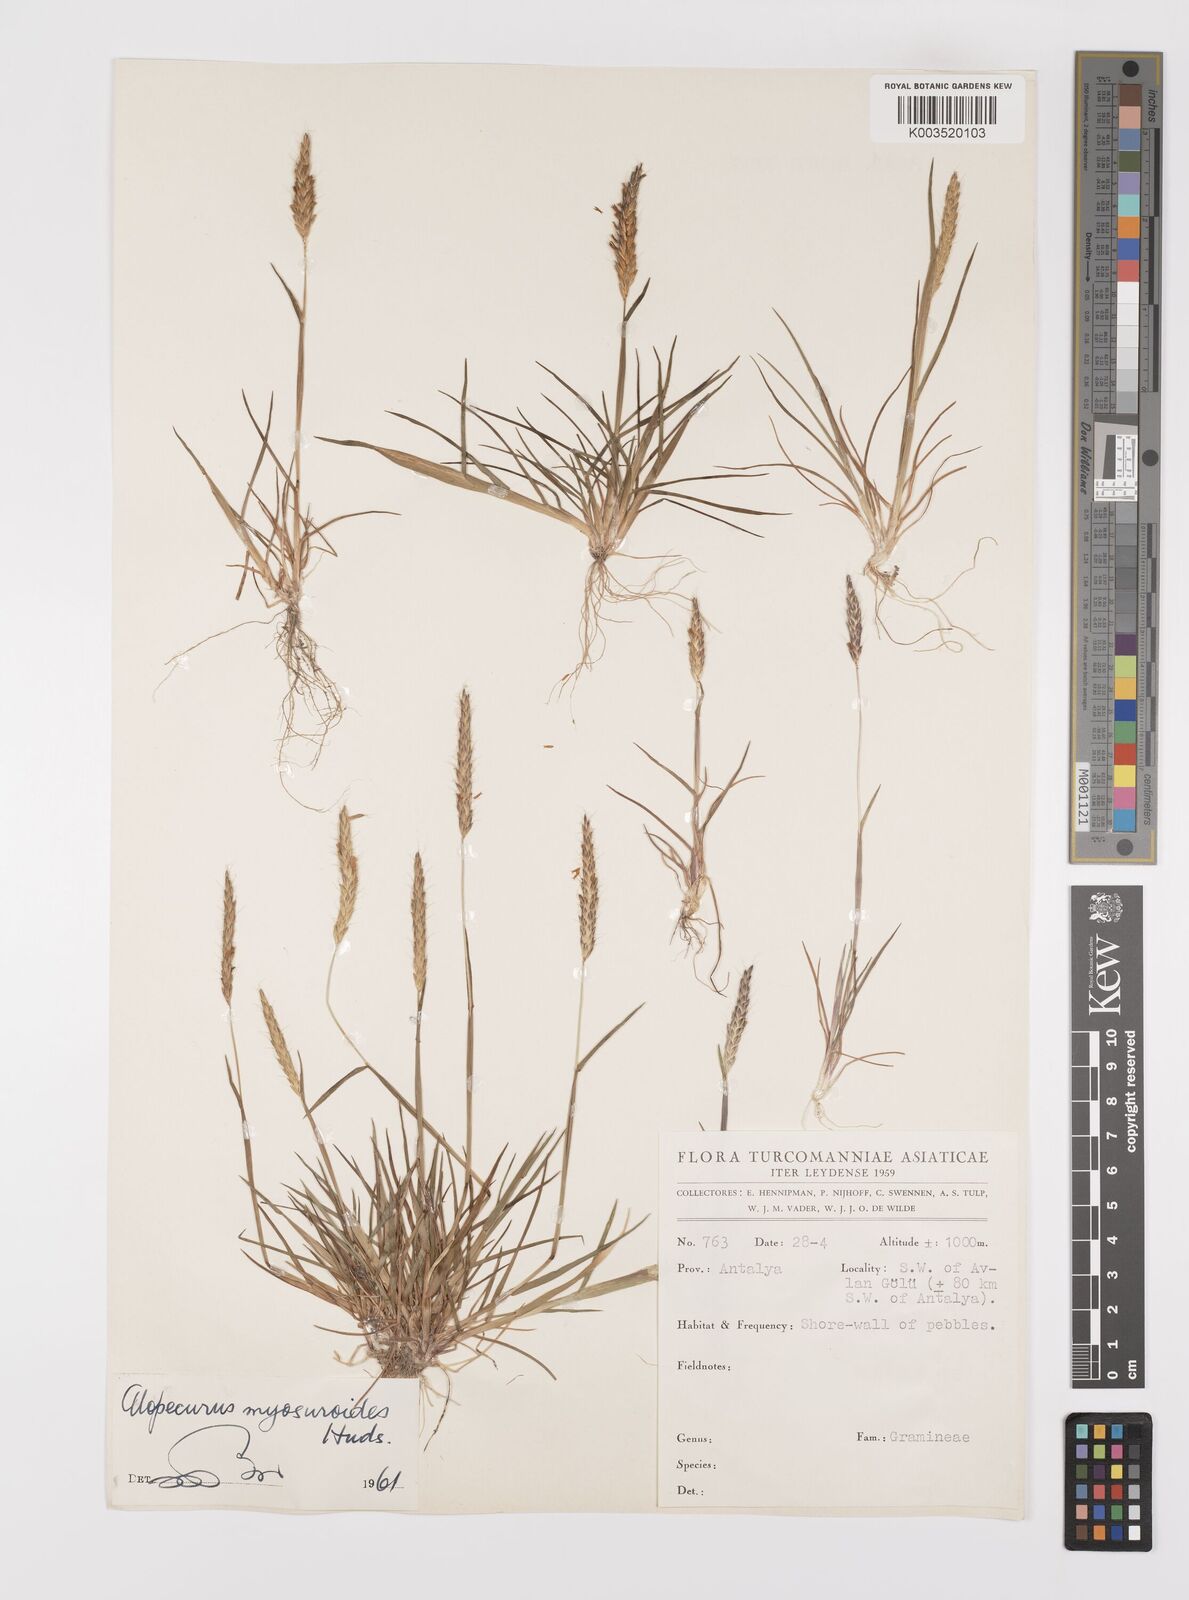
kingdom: Plantae
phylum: Tracheophyta
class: Liliopsida
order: Poales
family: Poaceae
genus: Alopecurus
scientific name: Alopecurus myosuroides
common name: Black-grass
